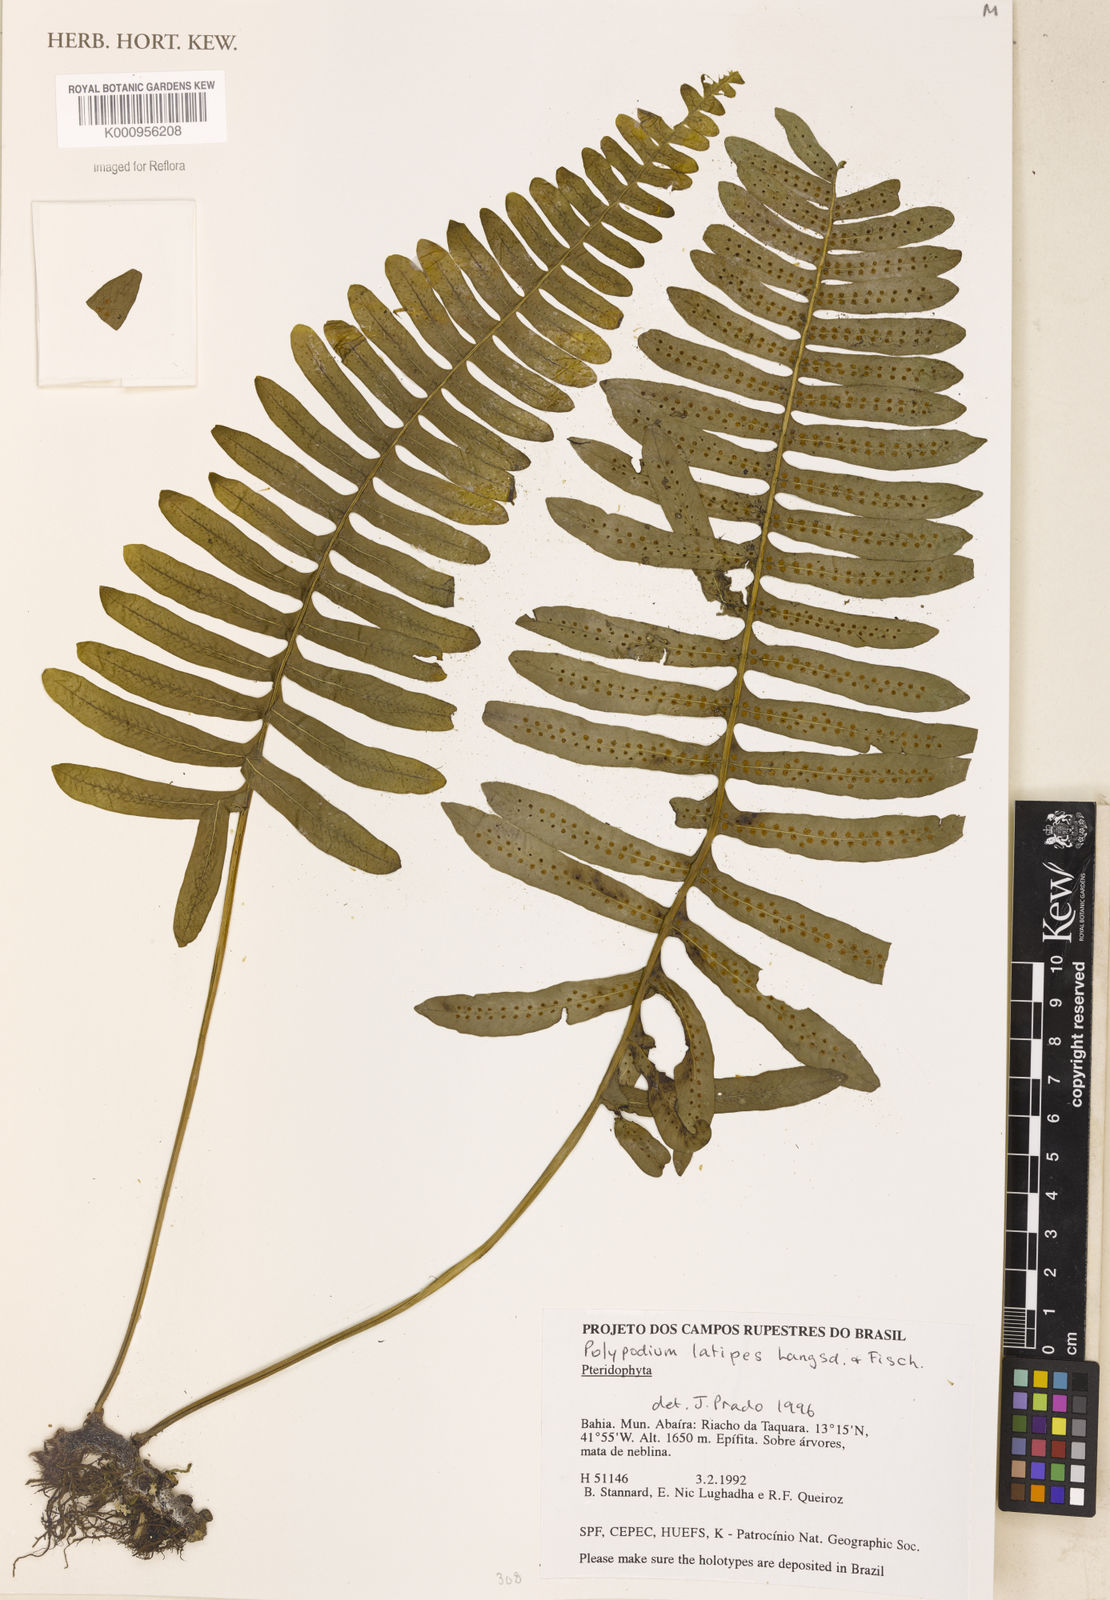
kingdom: Plantae
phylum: Tracheophyta
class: Polypodiopsida
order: Polypodiales
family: Polypodiaceae
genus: Serpocaulon
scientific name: Serpocaulon latipes
